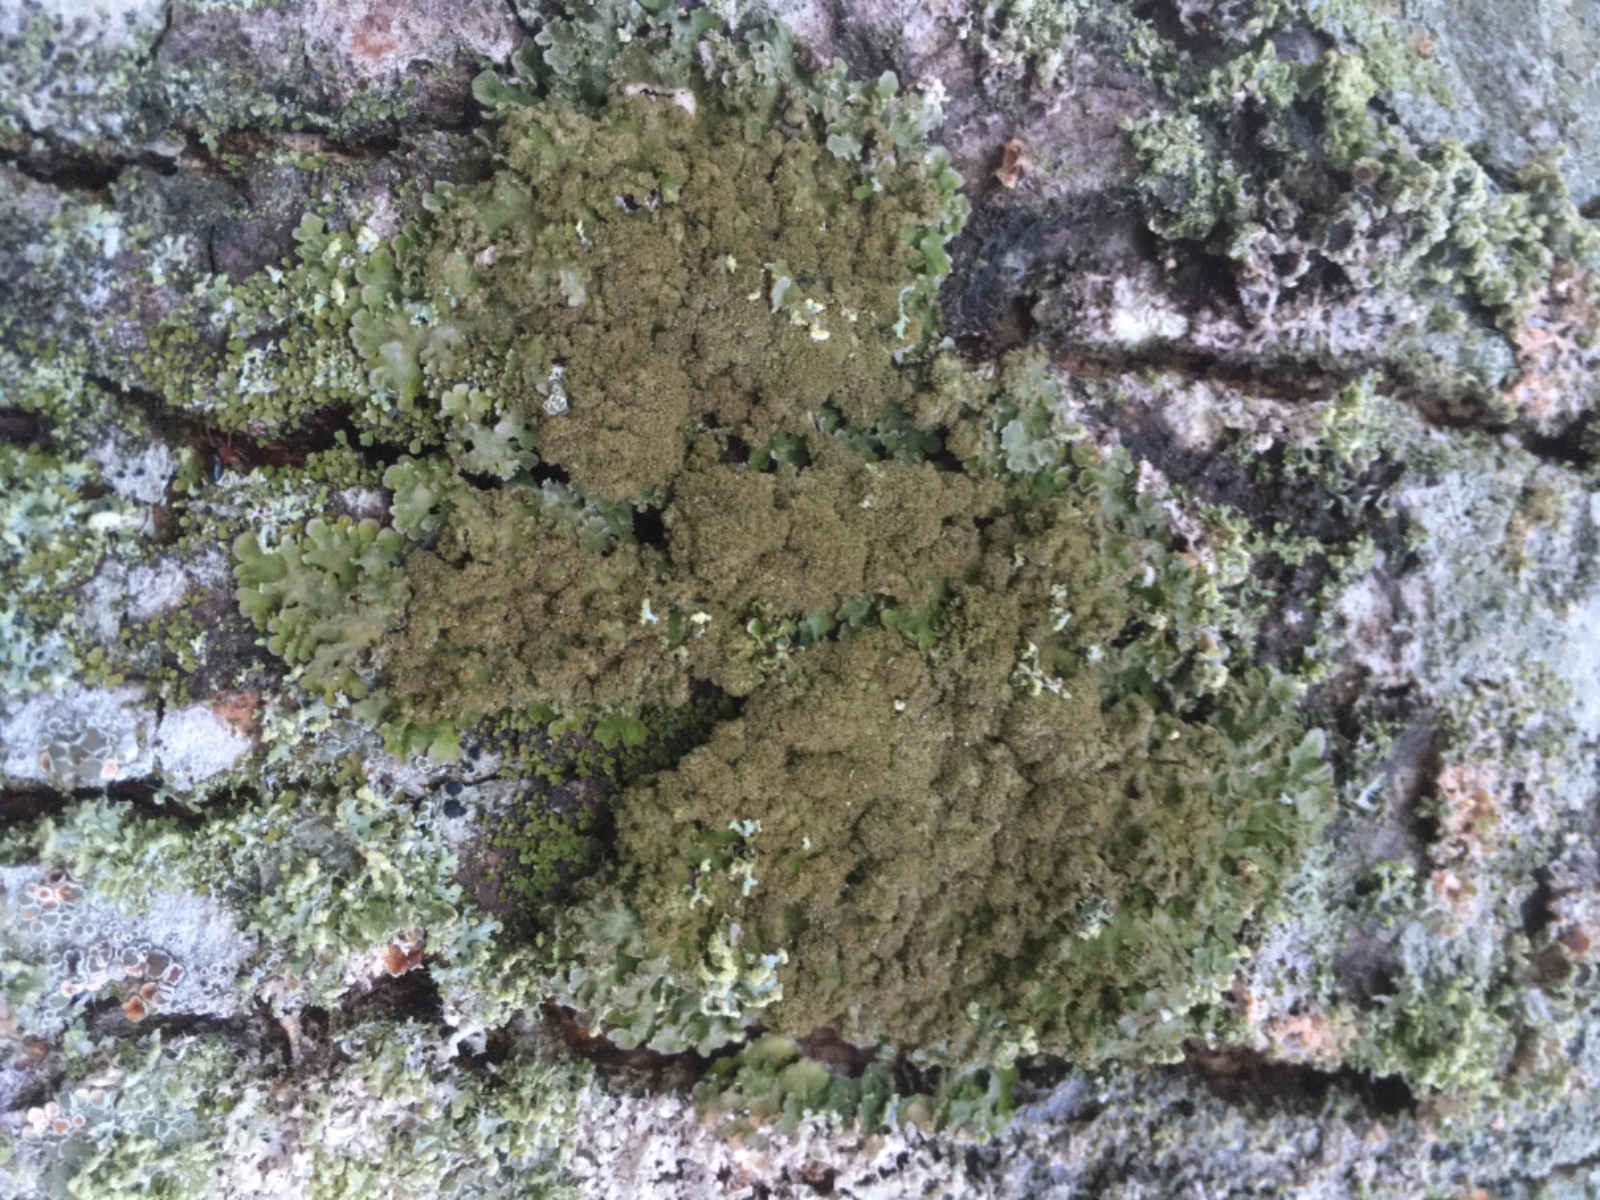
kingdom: Fungi
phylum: Ascomycota
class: Lecanoromycetes
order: Caliciales
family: Physciaceae
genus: Physconia
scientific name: Physconia
